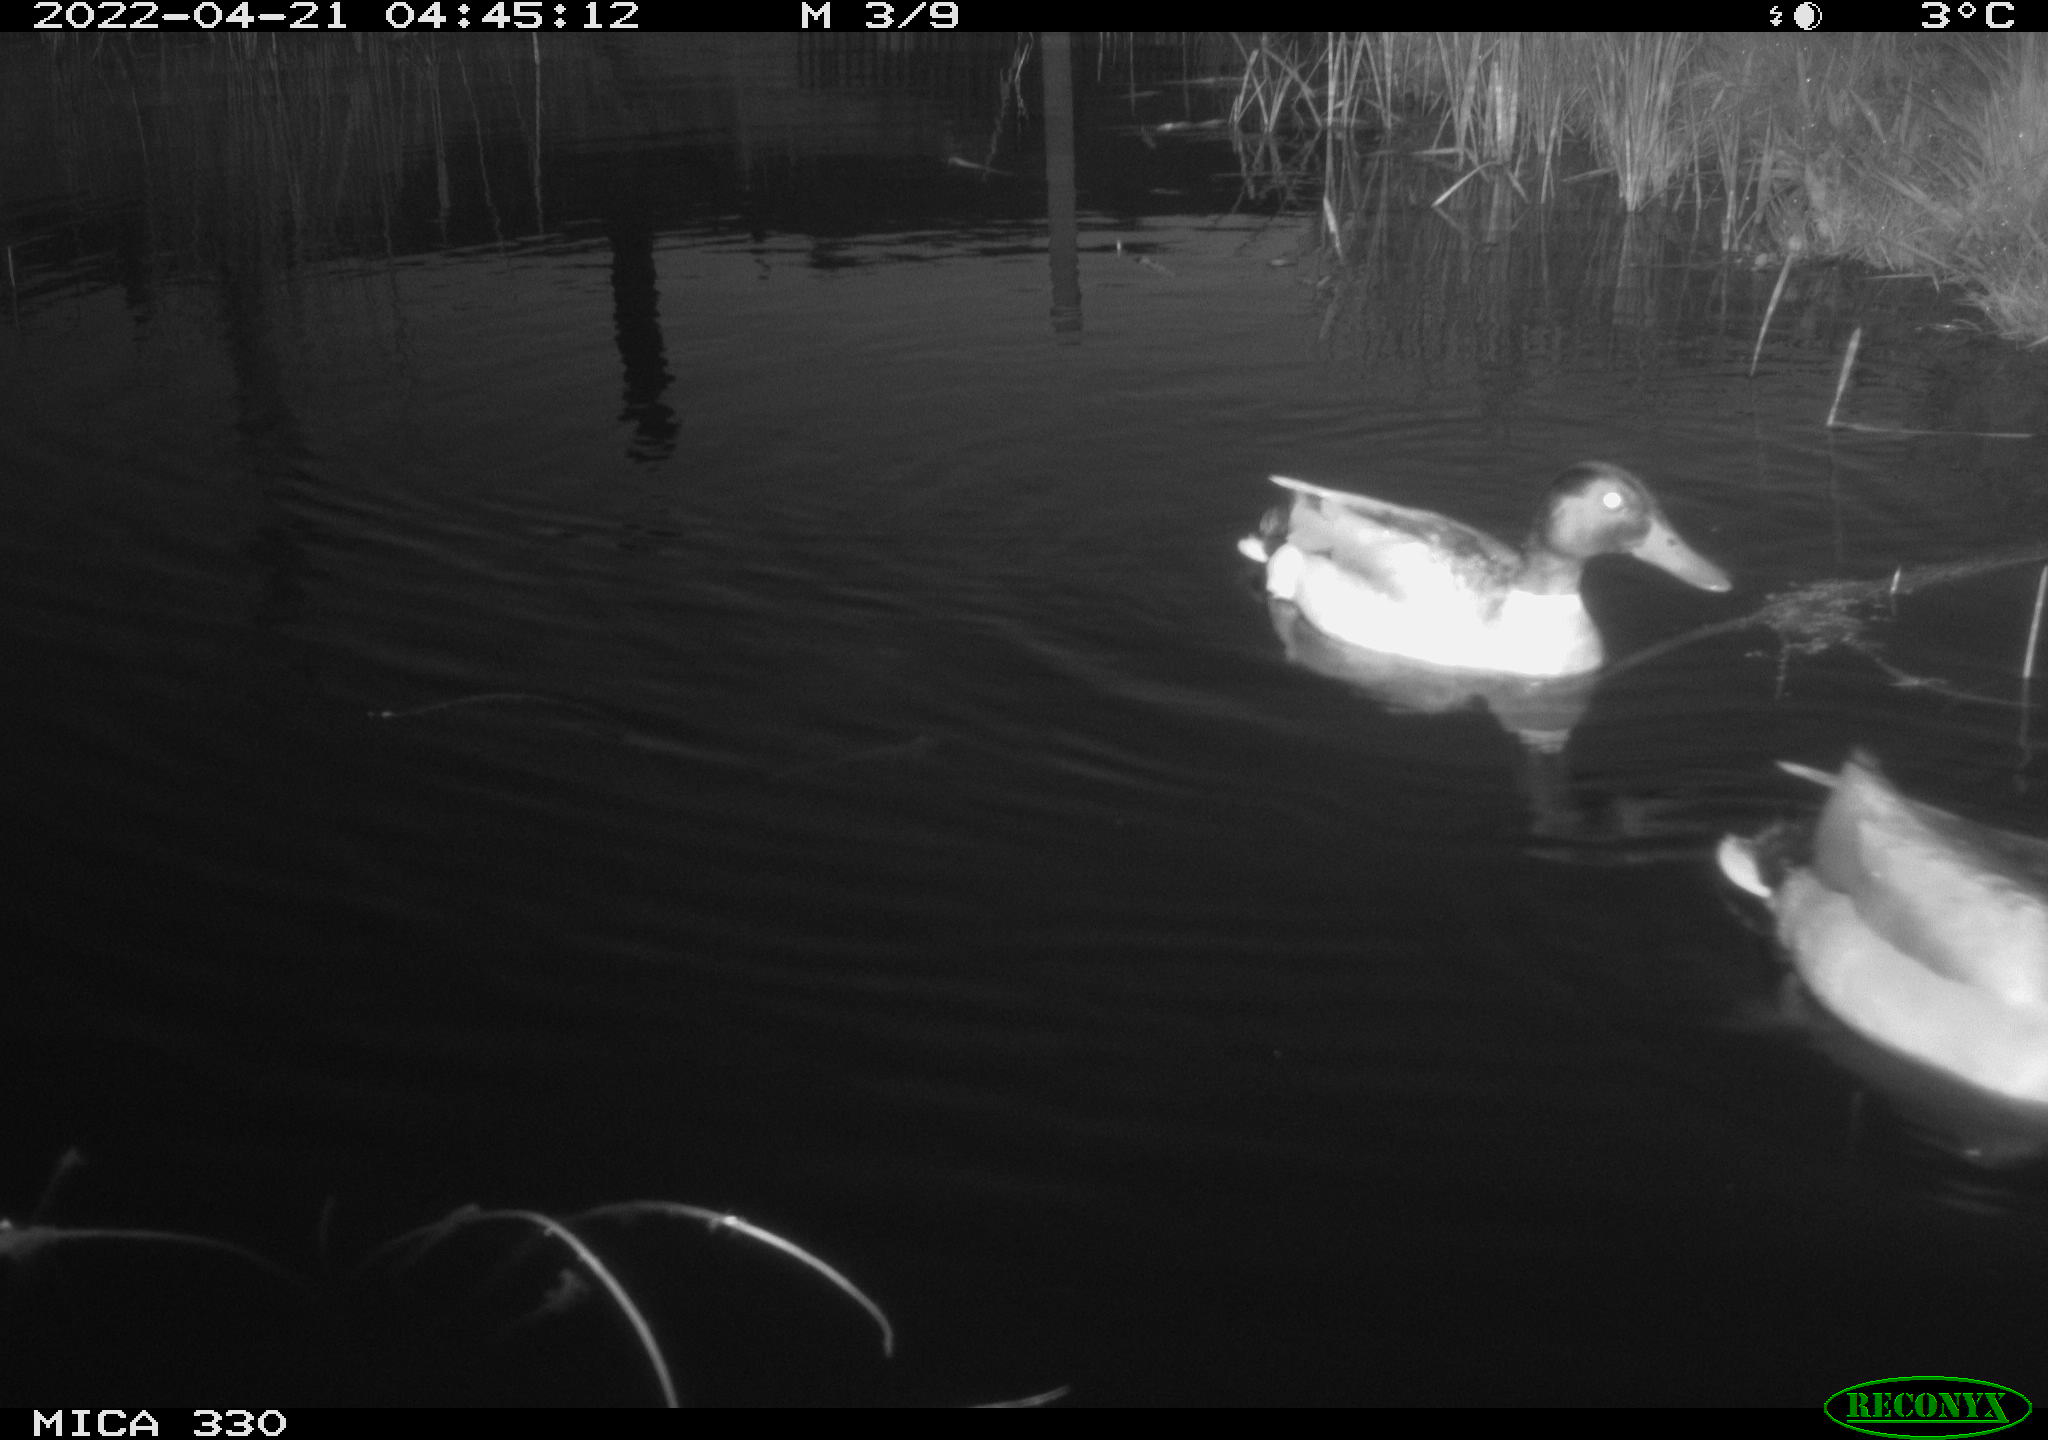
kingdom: Animalia
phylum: Chordata
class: Aves
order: Anseriformes
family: Anatidae
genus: Anas
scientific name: Anas platyrhynchos
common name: Mallard
